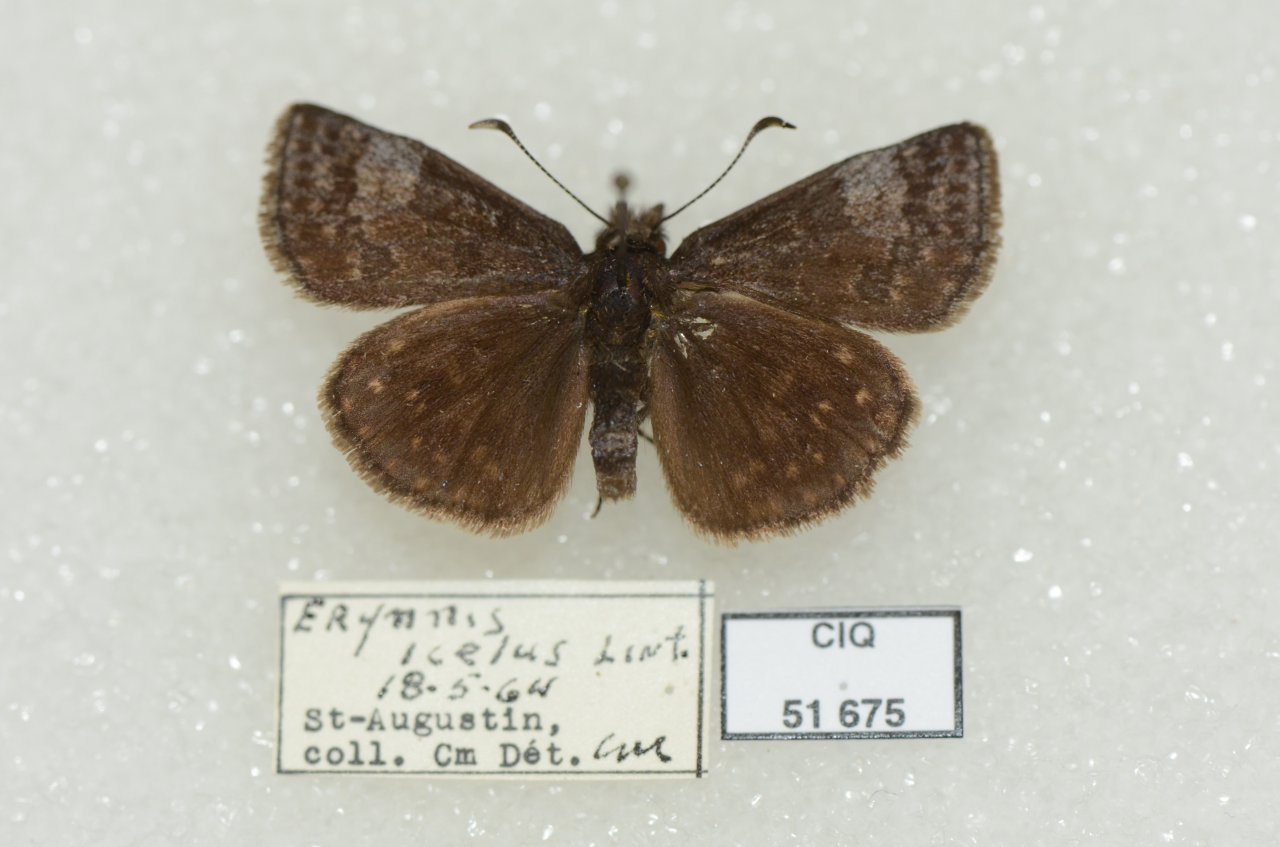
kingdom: Animalia
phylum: Arthropoda
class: Insecta
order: Lepidoptera
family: Hesperiidae
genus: Erynnis
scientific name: Erynnis icelus
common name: Dreamy Duskywing
